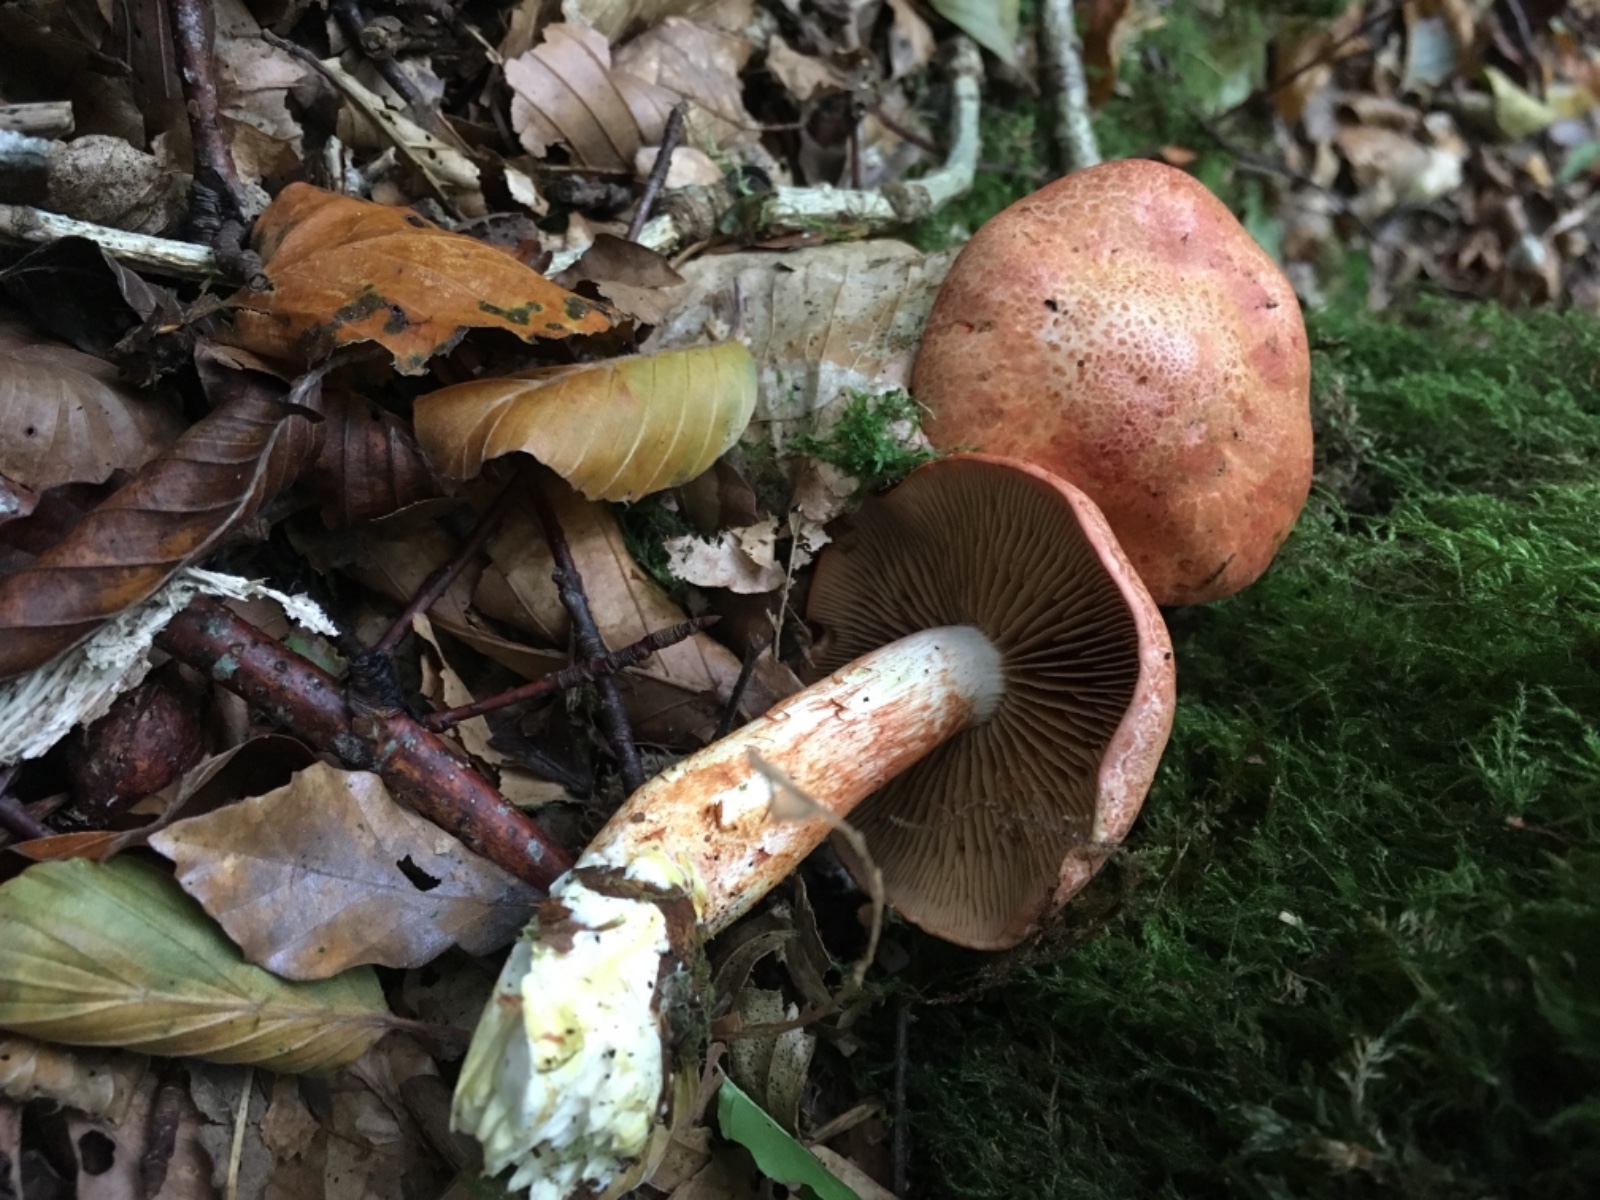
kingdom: Fungi
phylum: Basidiomycota
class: Agaricomycetes
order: Agaricales
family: Cortinariaceae
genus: Cortinarius
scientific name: Cortinarius bolaris
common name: cinnoberskællet slørhat
